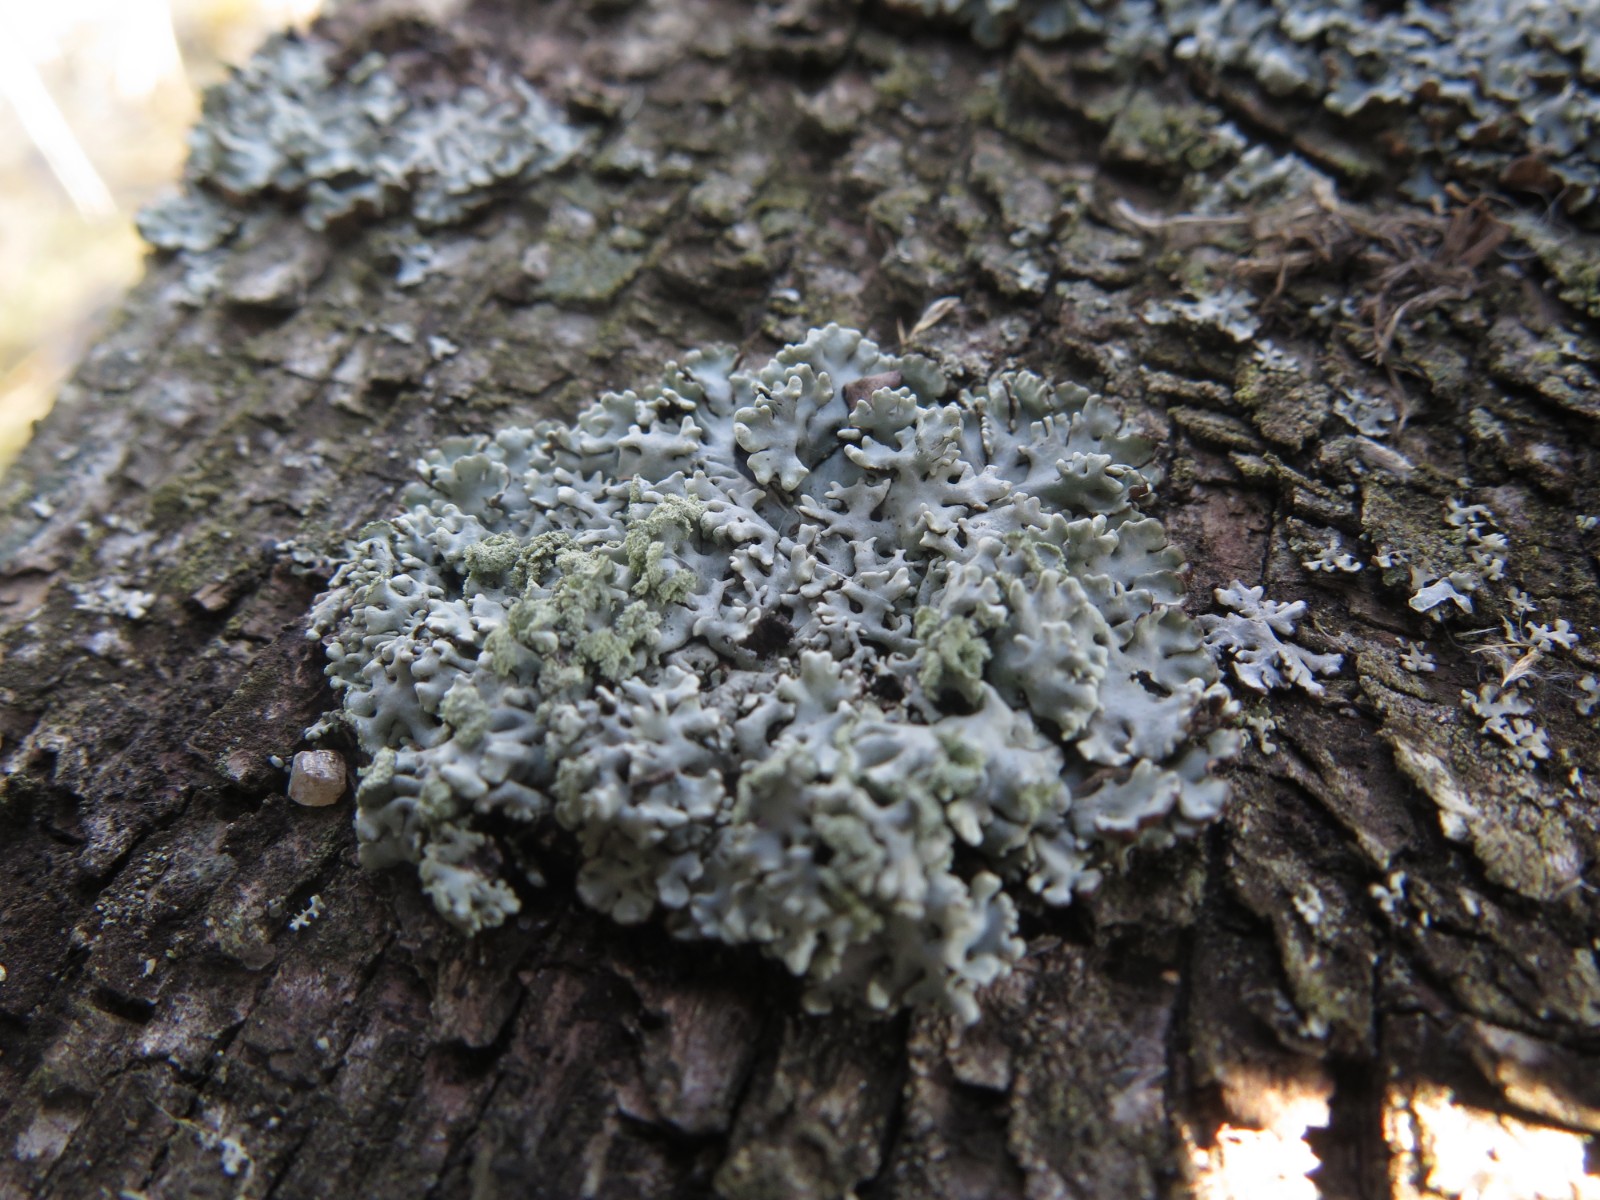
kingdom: Fungi
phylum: Ascomycota
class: Lecanoromycetes
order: Lecanorales
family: Parmeliaceae
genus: Hypogymnia
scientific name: Hypogymnia physodes
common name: almindelig kvistlav
